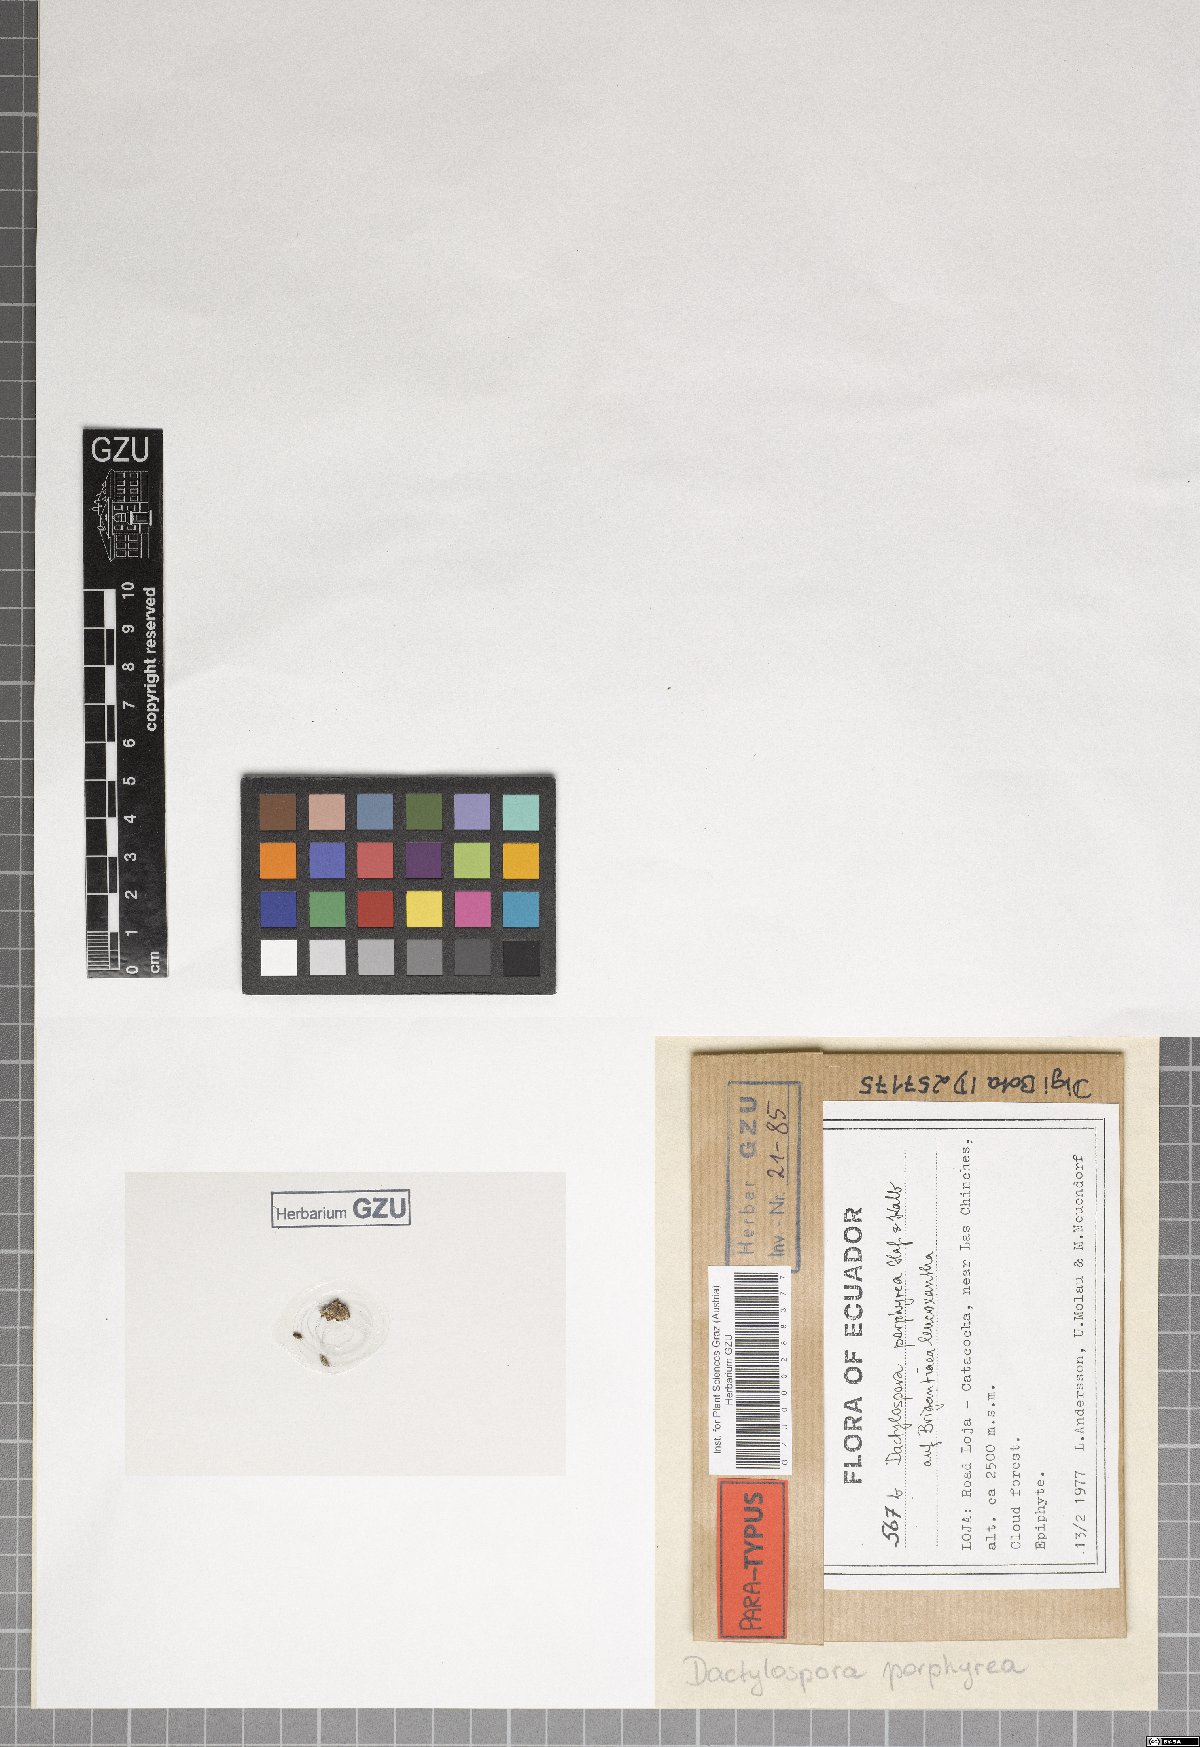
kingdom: Fungi
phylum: Ascomycota
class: Eurotiomycetes
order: Sclerococcales
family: Sclerococcaceae
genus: Sclerococcum
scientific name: Sclerococcum porphyreum
